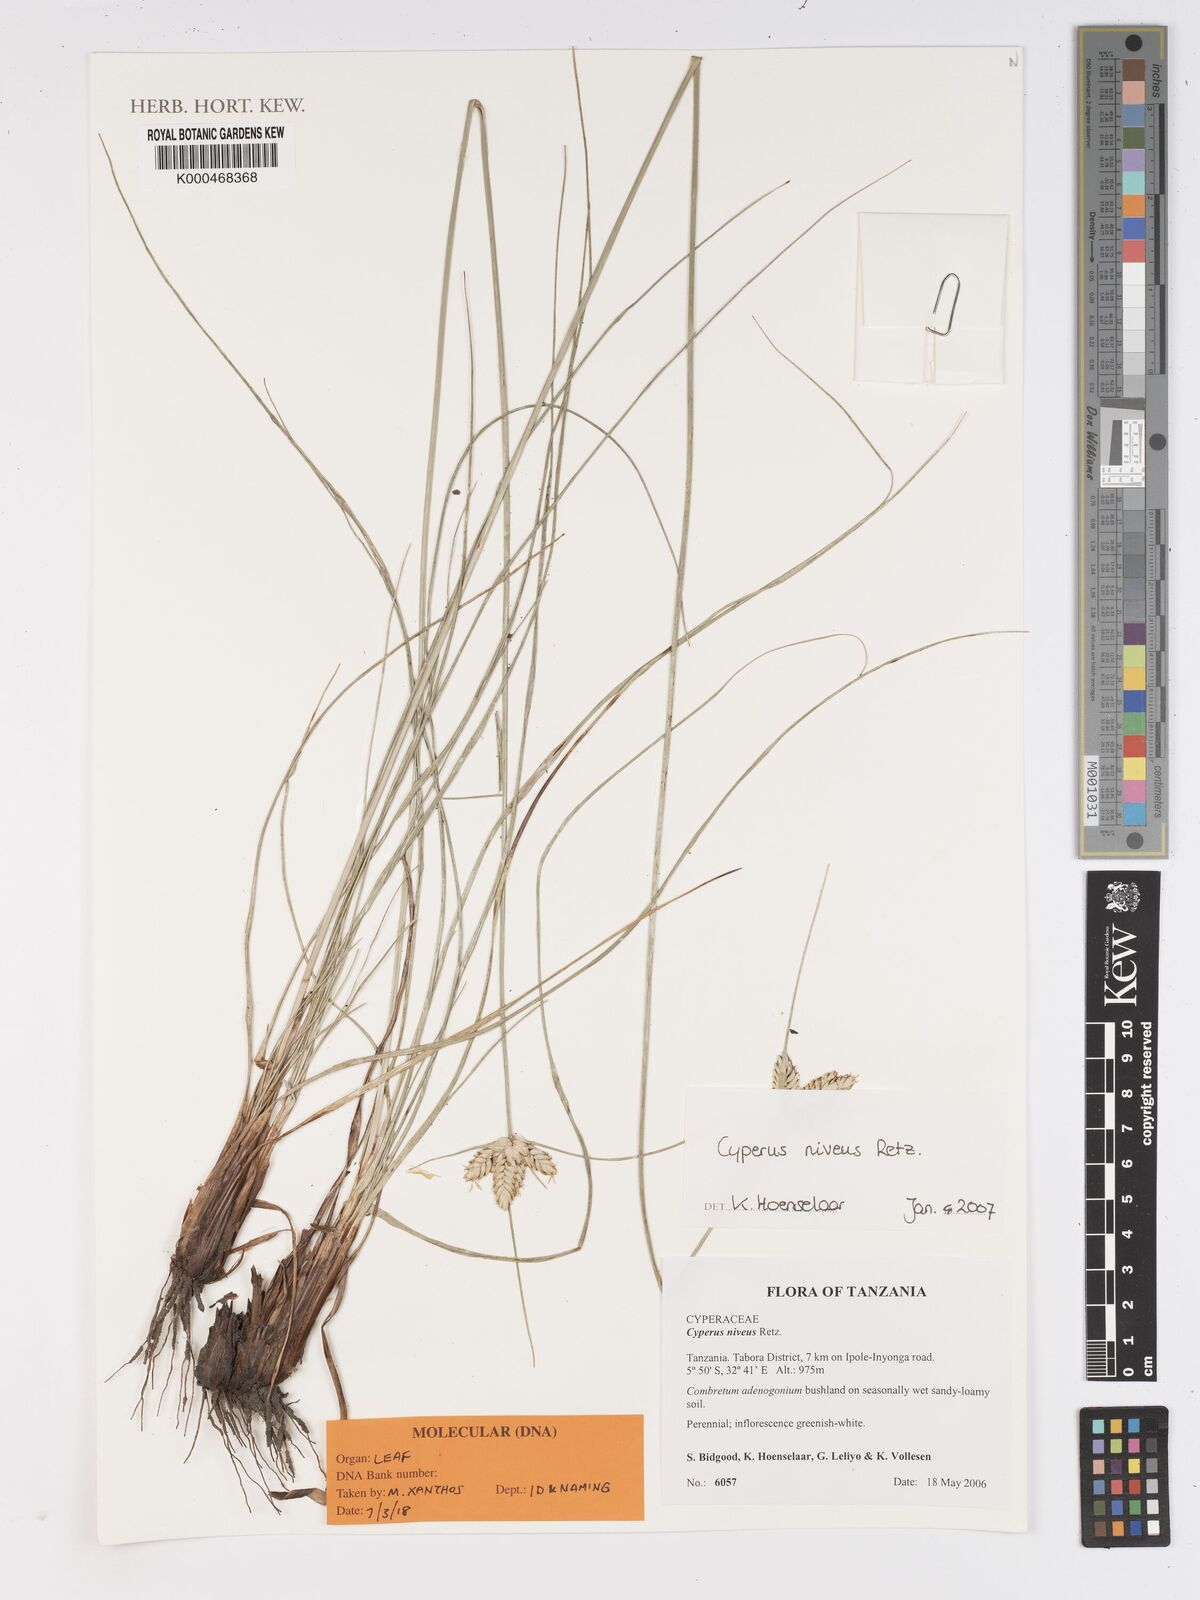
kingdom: Plantae
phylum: Tracheophyta
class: Liliopsida
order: Poales
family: Cyperaceae
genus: Cyperus
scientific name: Cyperus niveus
